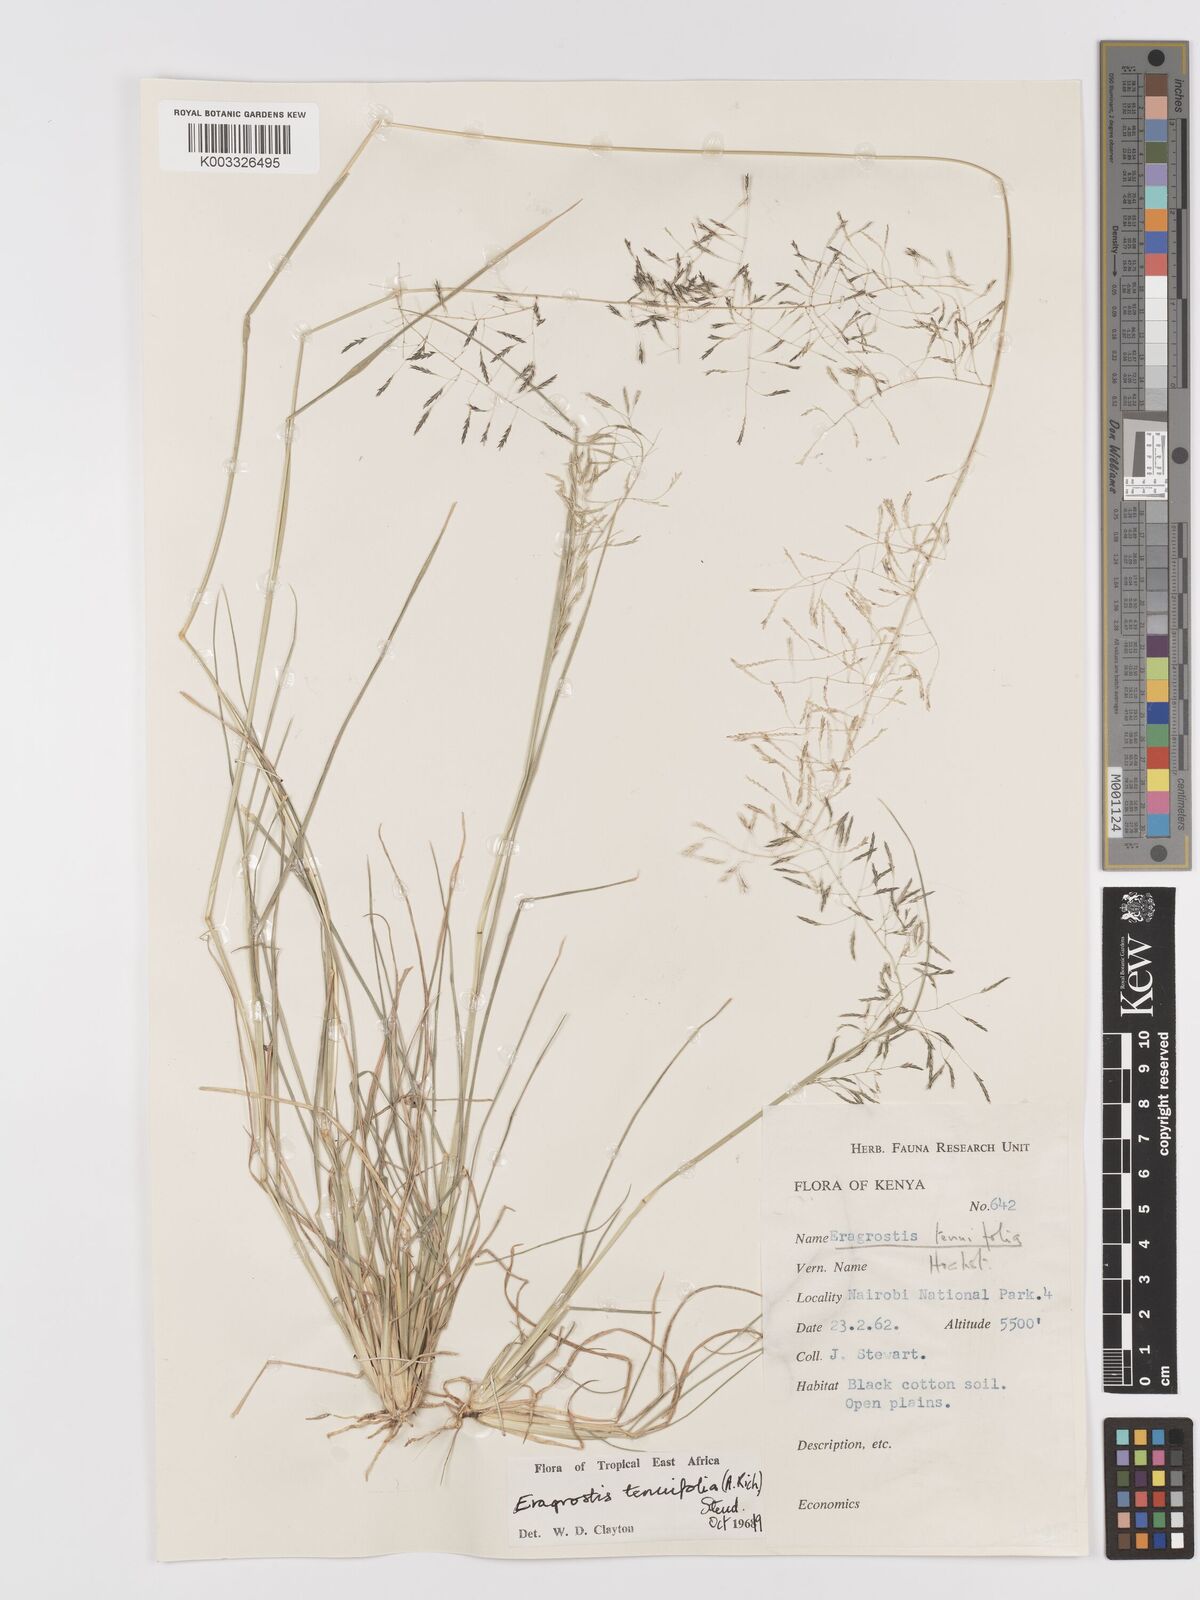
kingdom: Plantae
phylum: Tracheophyta
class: Liliopsida
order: Poales
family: Poaceae
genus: Eragrostis
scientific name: Eragrostis tenuifolia
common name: Elastic grass
